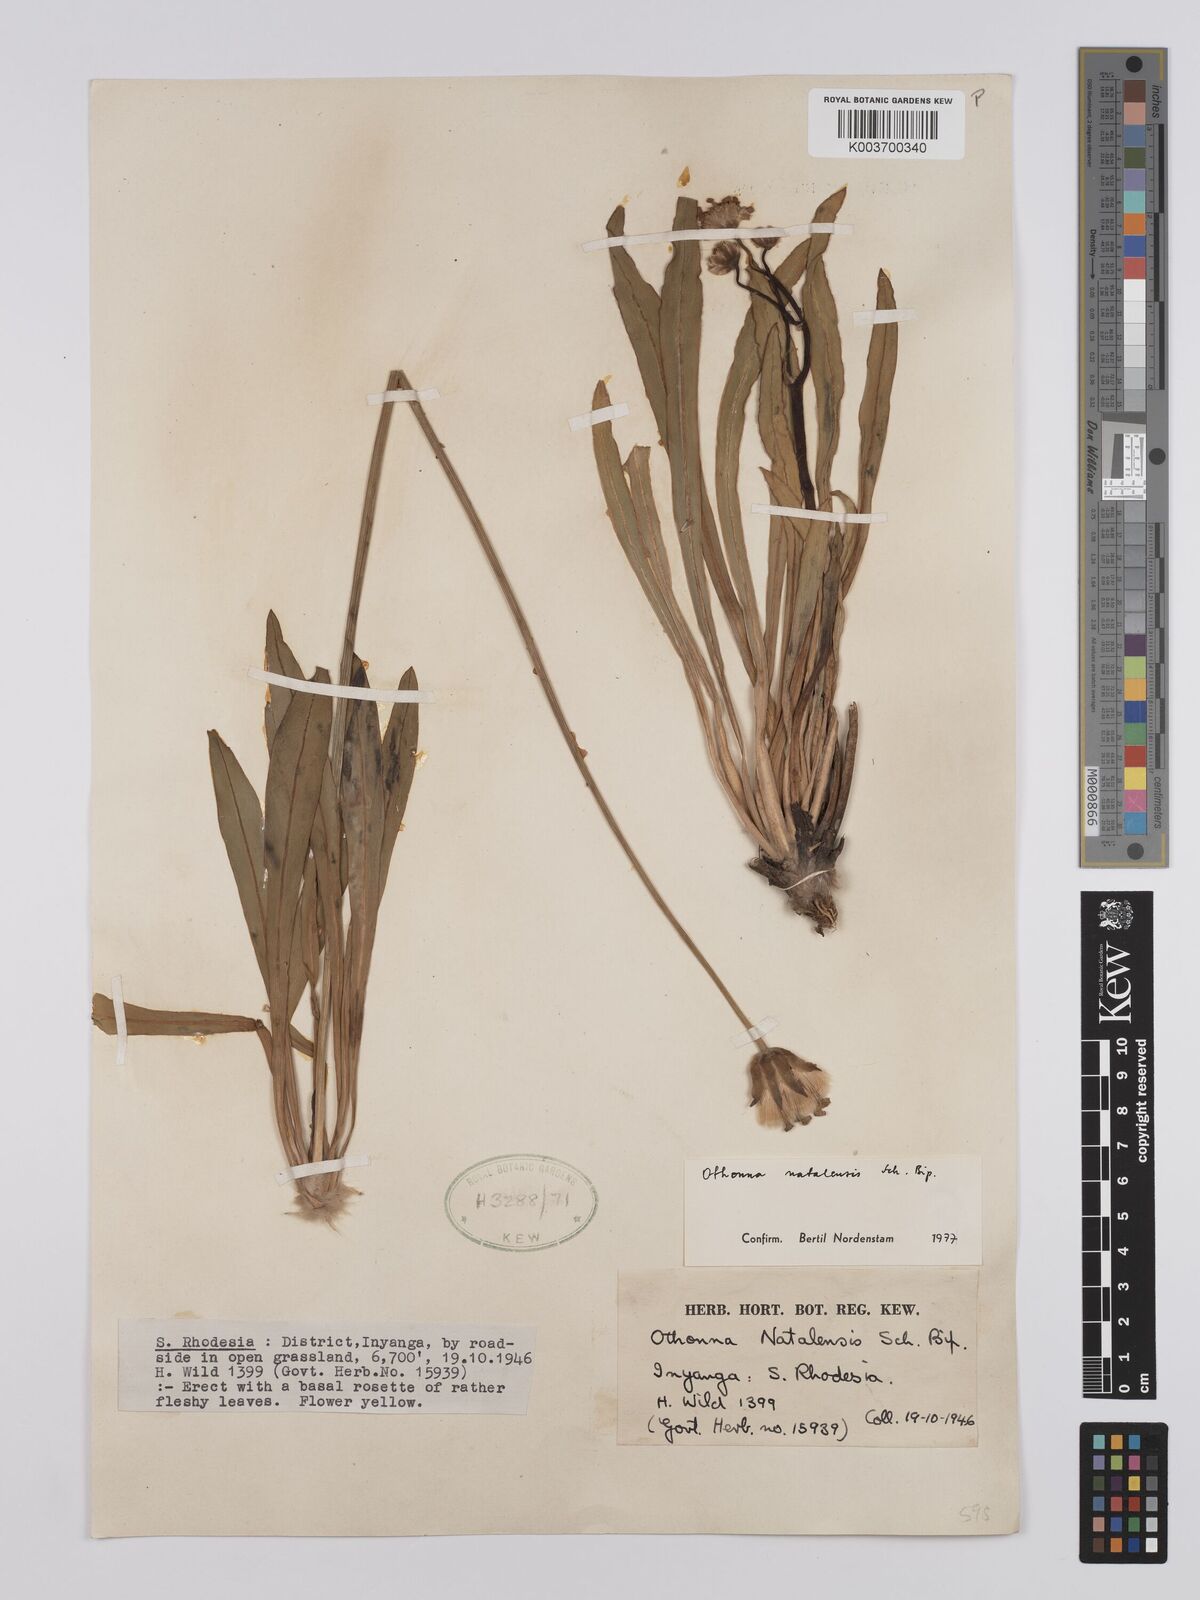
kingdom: Plantae
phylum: Tracheophyta
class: Magnoliopsida
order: Asterales
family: Asteraceae
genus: Othonna
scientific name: Othonna natalensis
